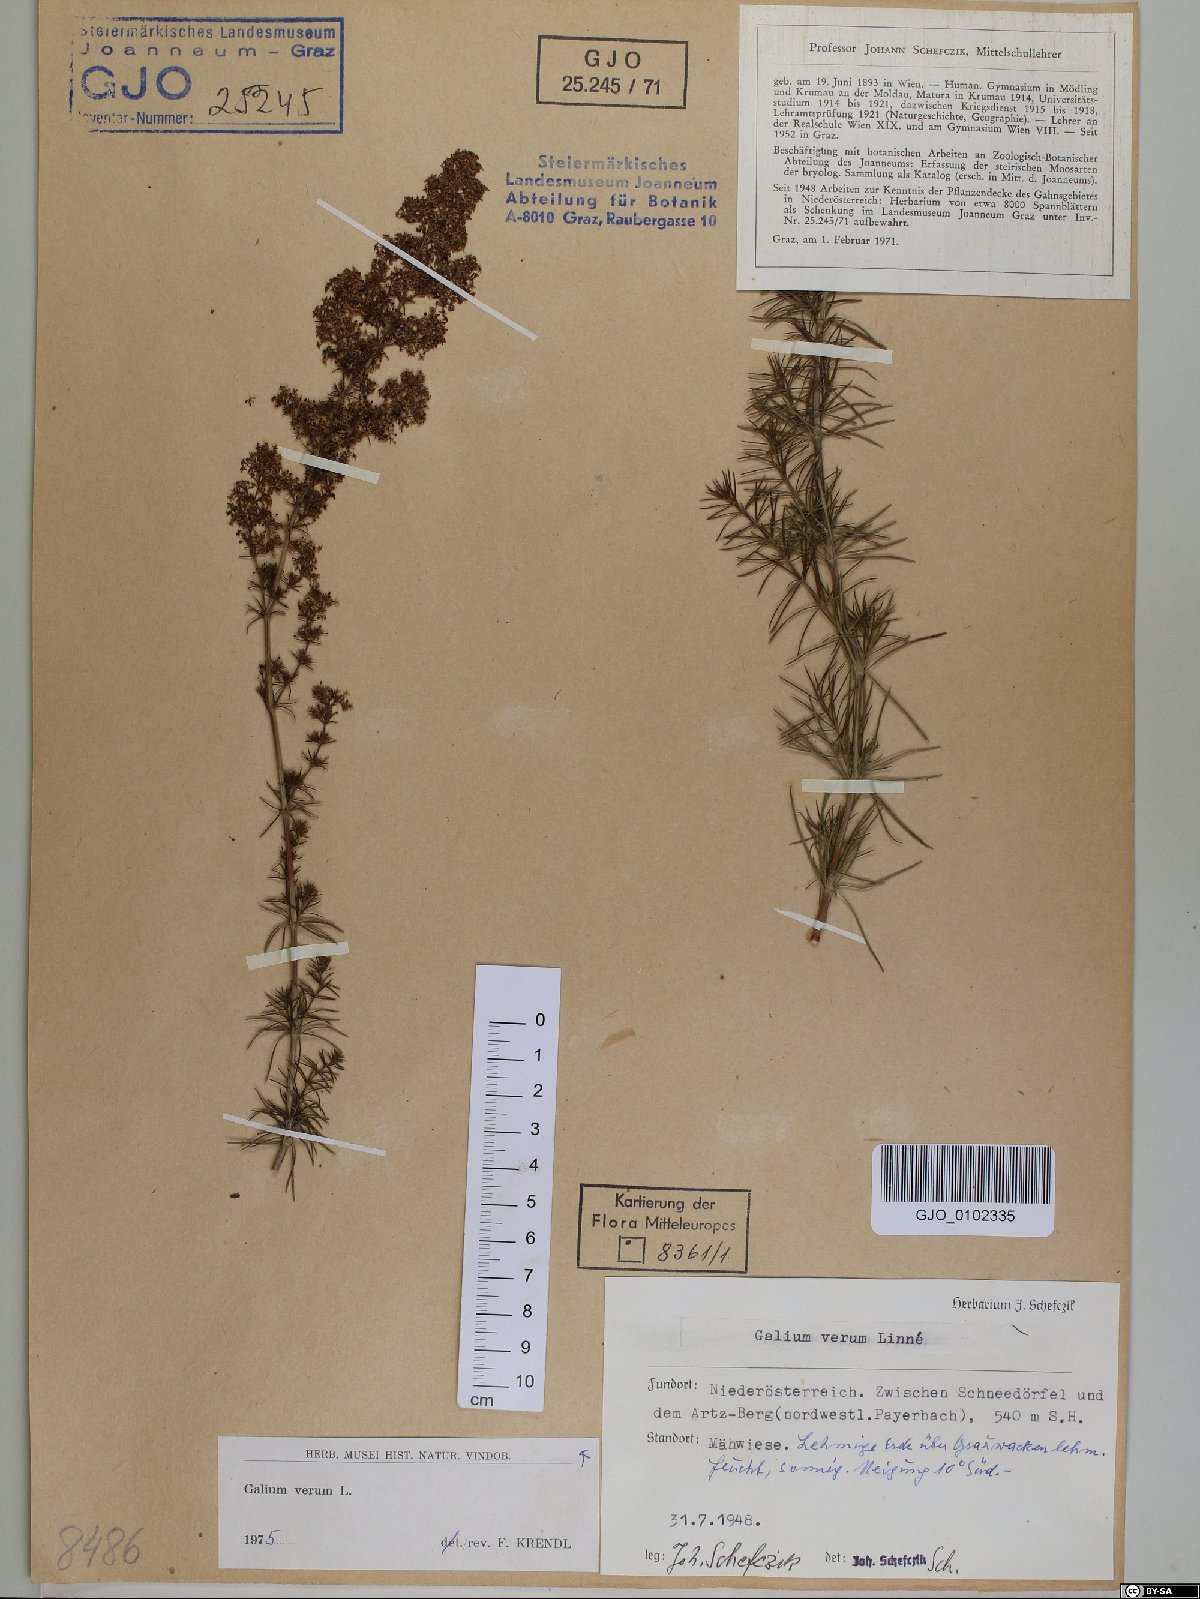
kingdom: Plantae
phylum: Tracheophyta
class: Magnoliopsida
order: Gentianales
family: Rubiaceae
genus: Galium
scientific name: Galium verum
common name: Lady's bedstraw
